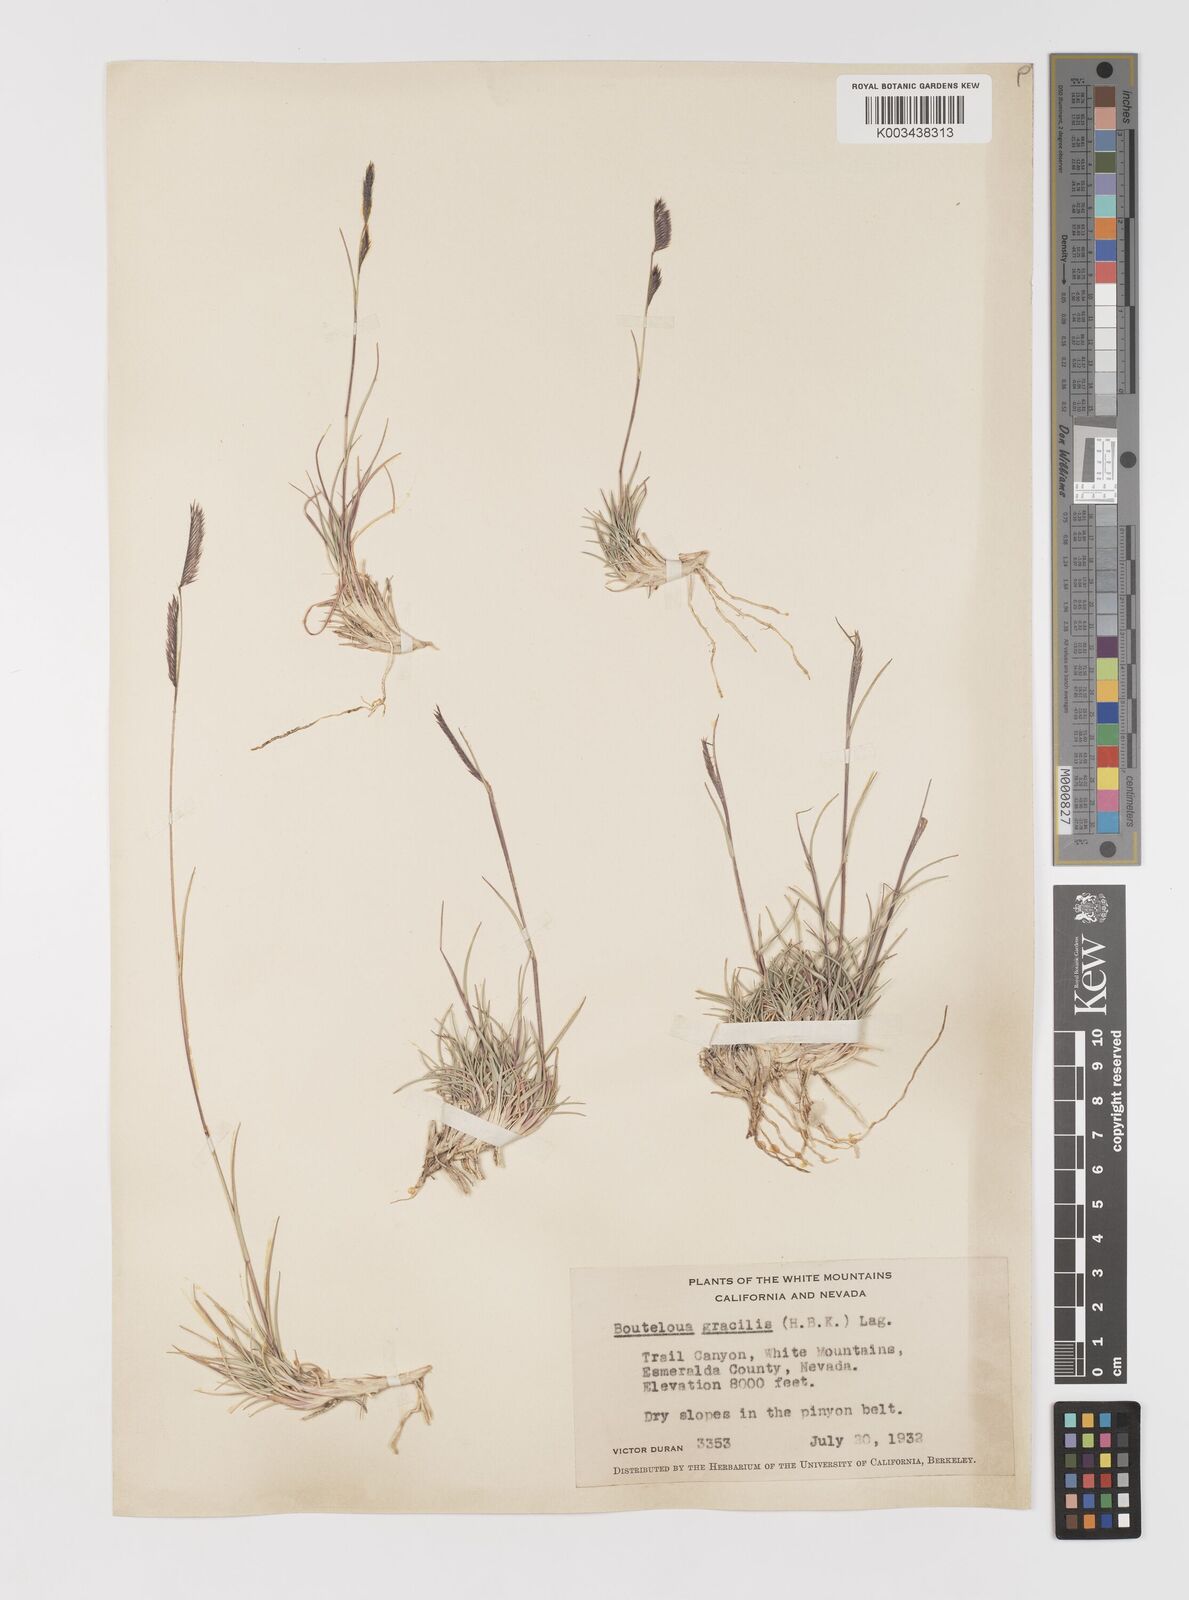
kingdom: Plantae
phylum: Tracheophyta
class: Liliopsida
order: Poales
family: Poaceae
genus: Bouteloua
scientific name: Bouteloua
